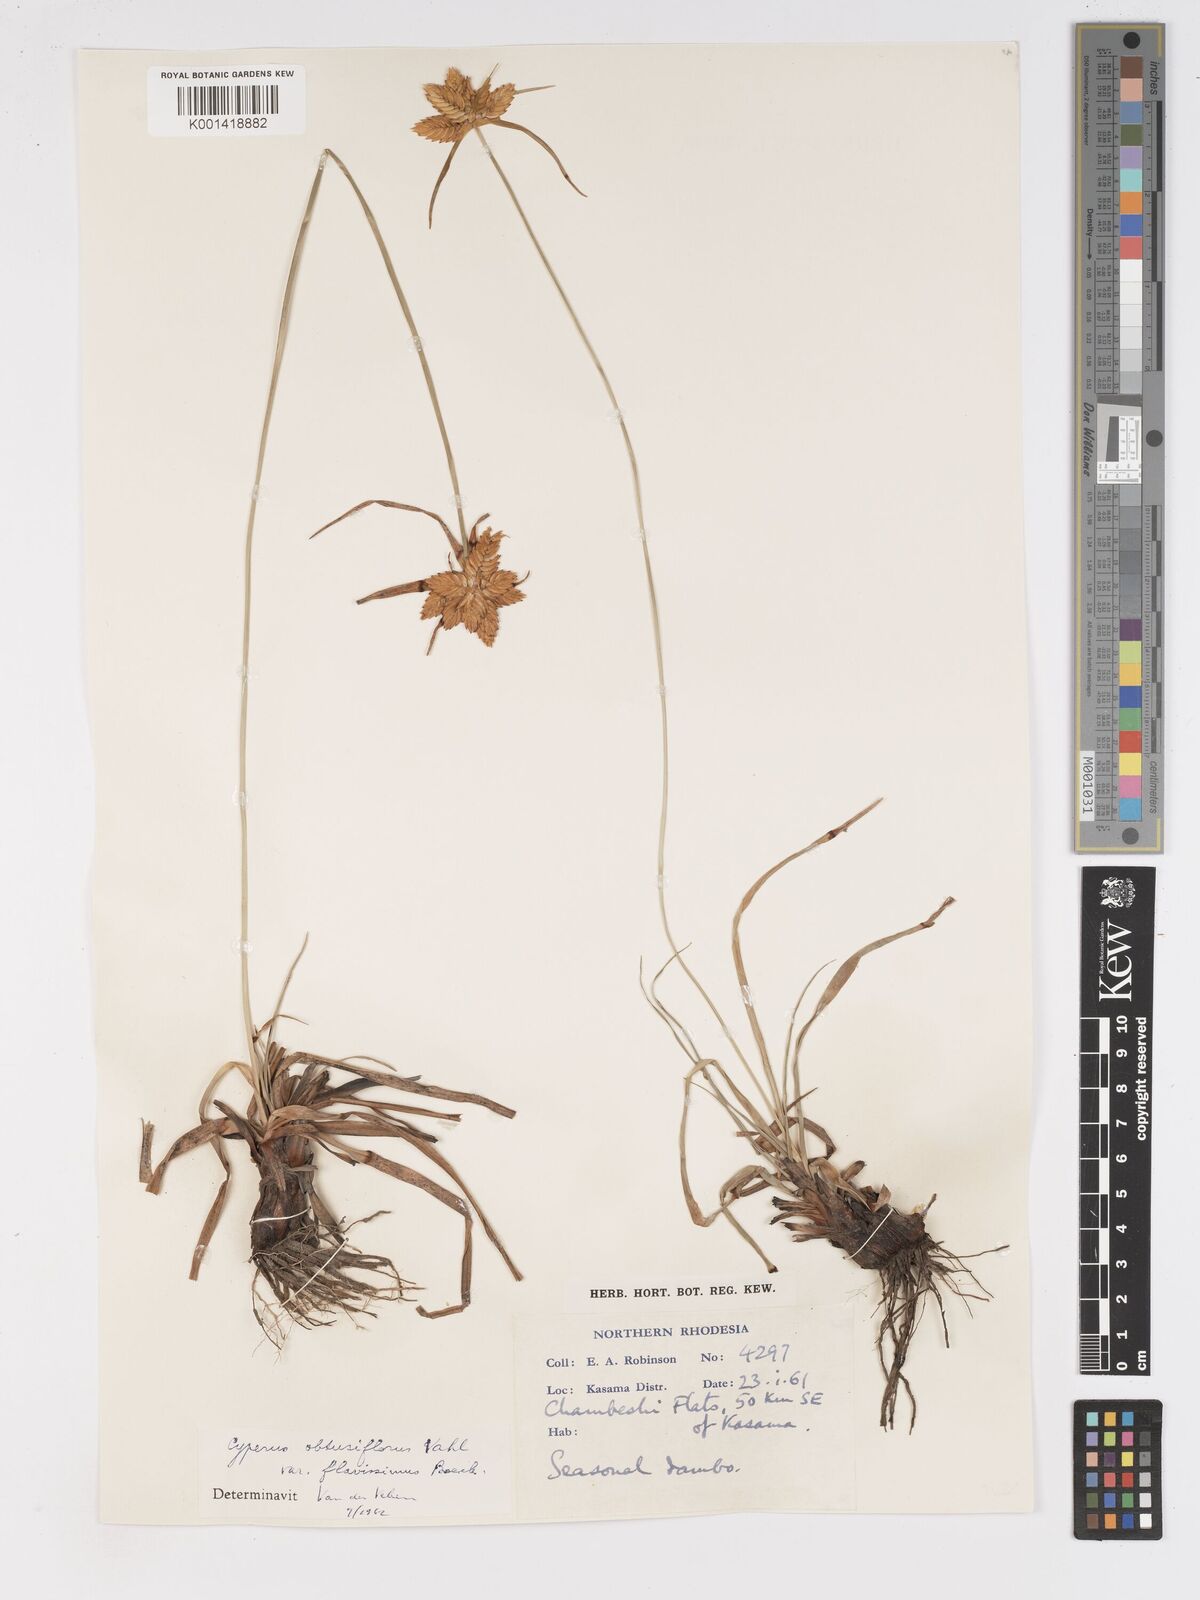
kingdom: Plantae
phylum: Tracheophyta
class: Liliopsida
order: Poales
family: Cyperaceae
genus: Cyperus
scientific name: Cyperus sphaerocephalus
